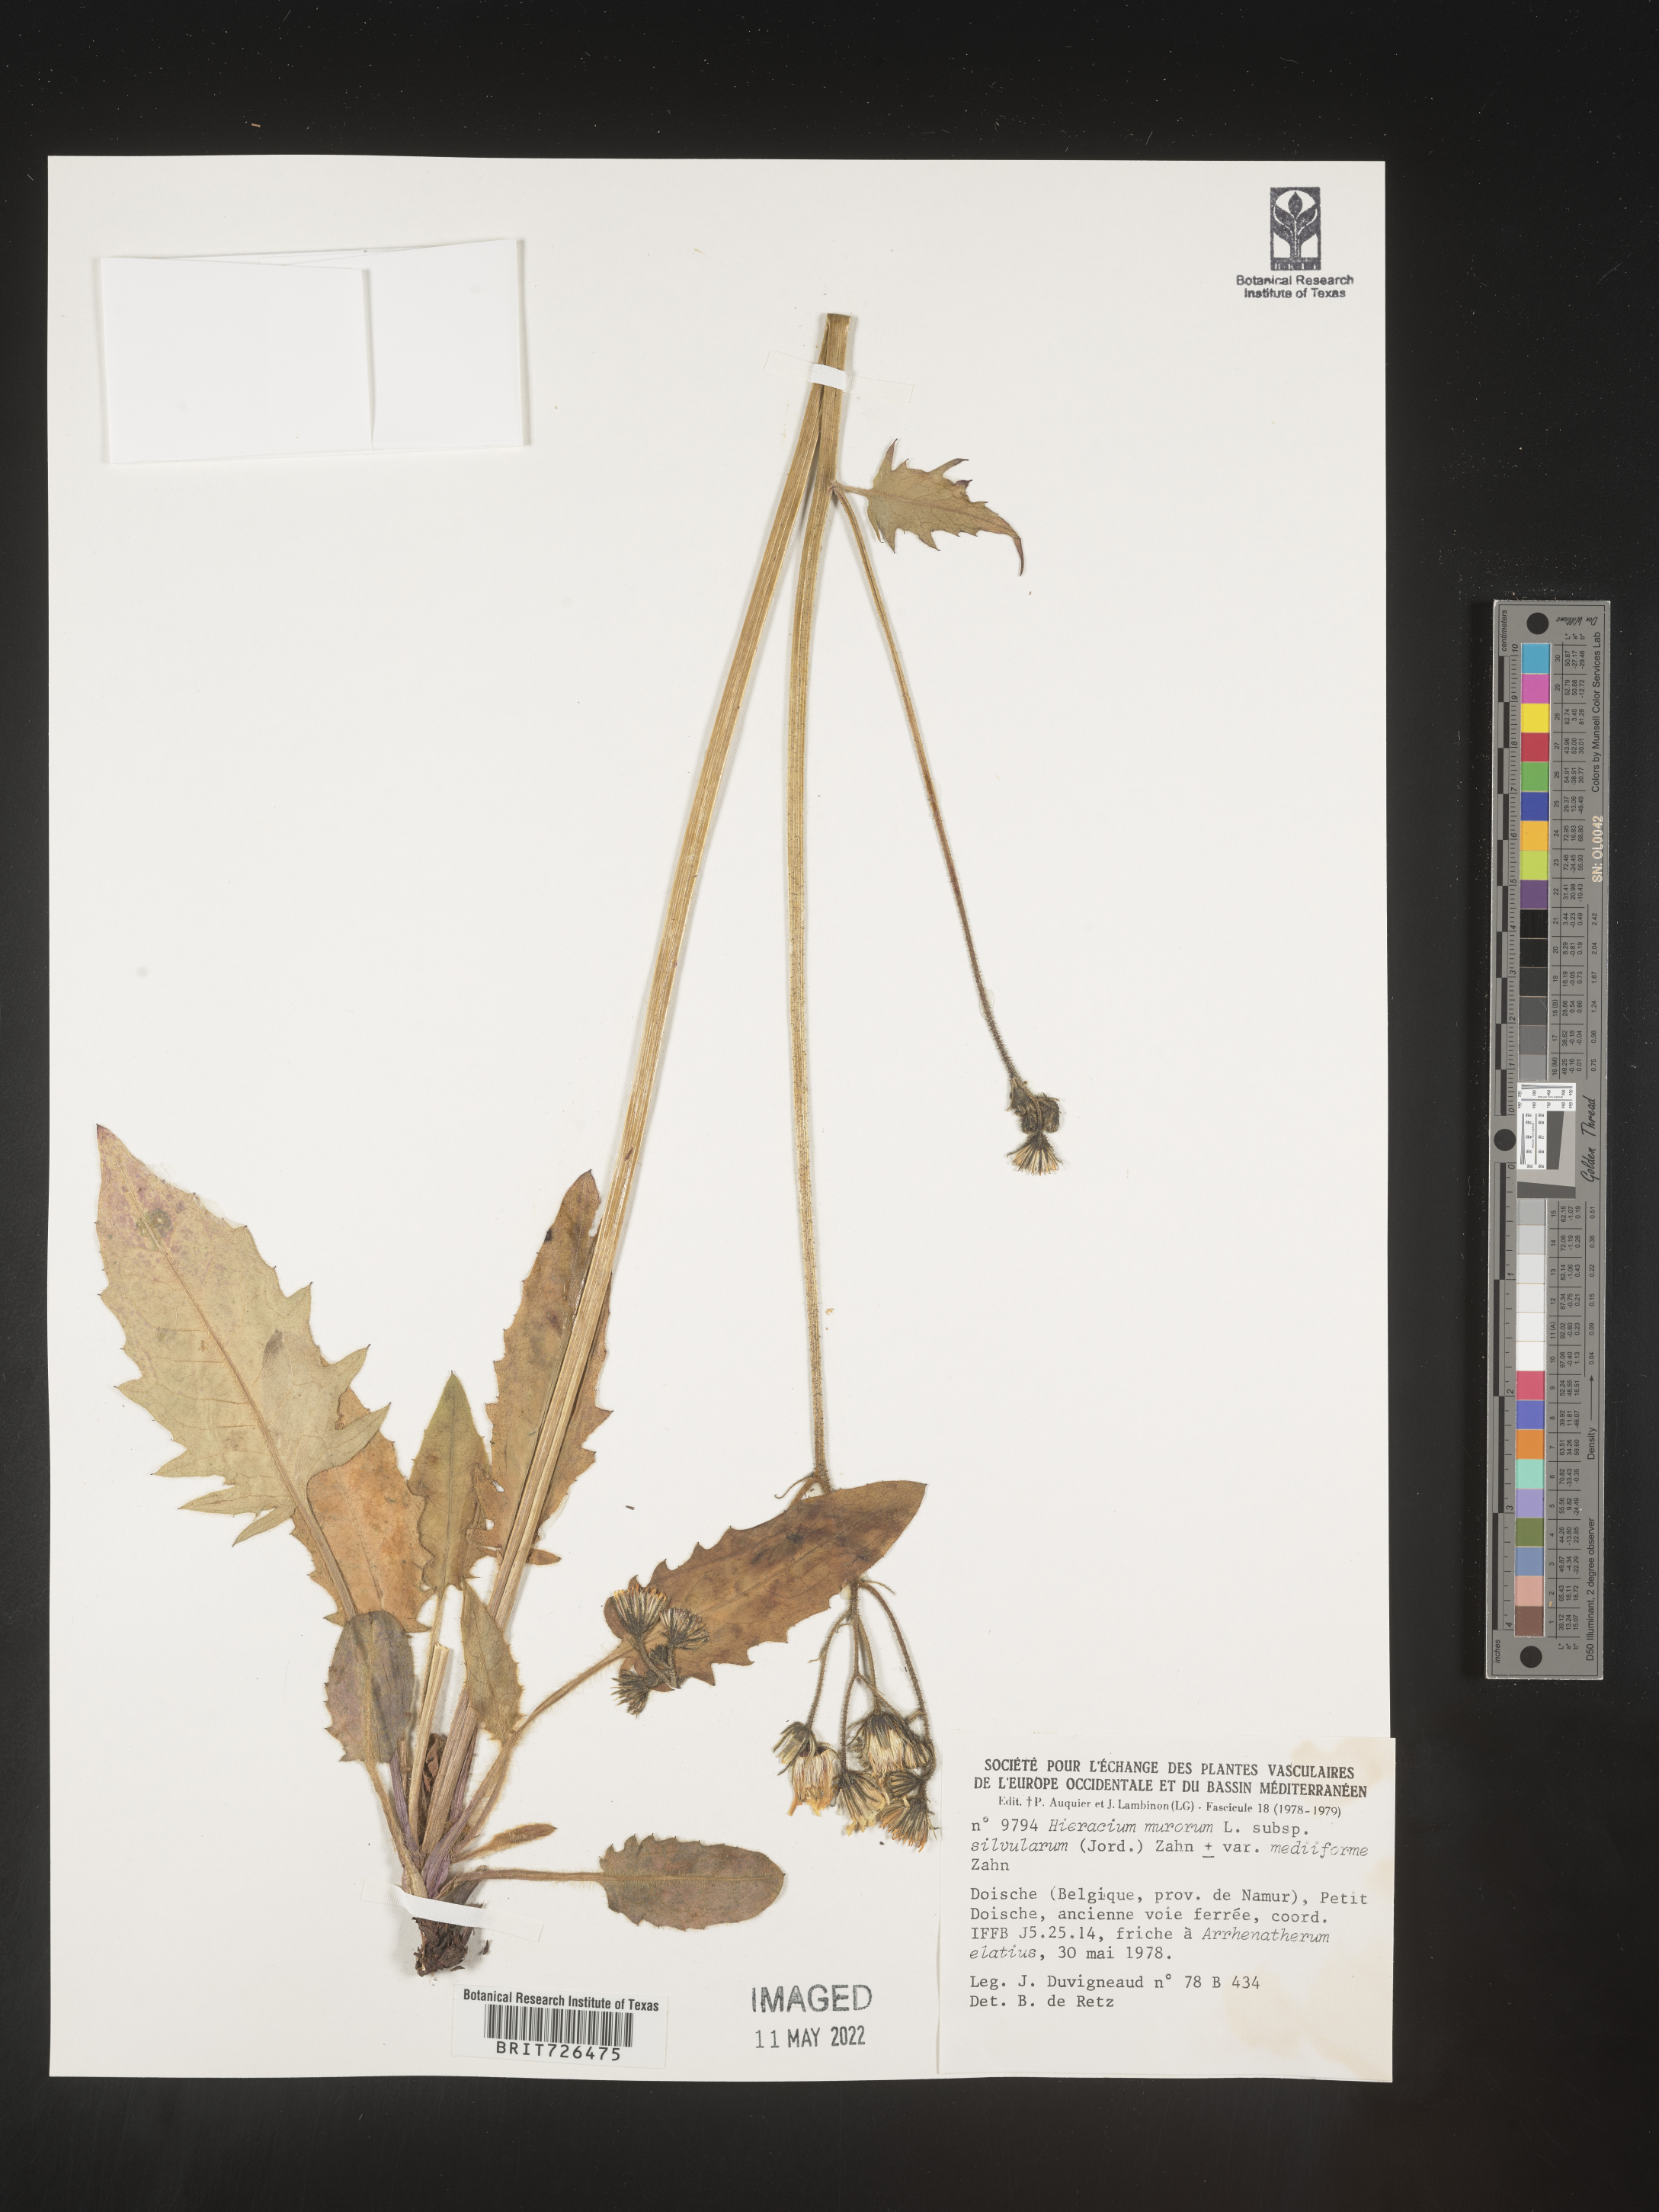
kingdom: Plantae
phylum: Tracheophyta
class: Magnoliopsida
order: Asterales
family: Asteraceae
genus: Hieracium
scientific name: Hieracium
